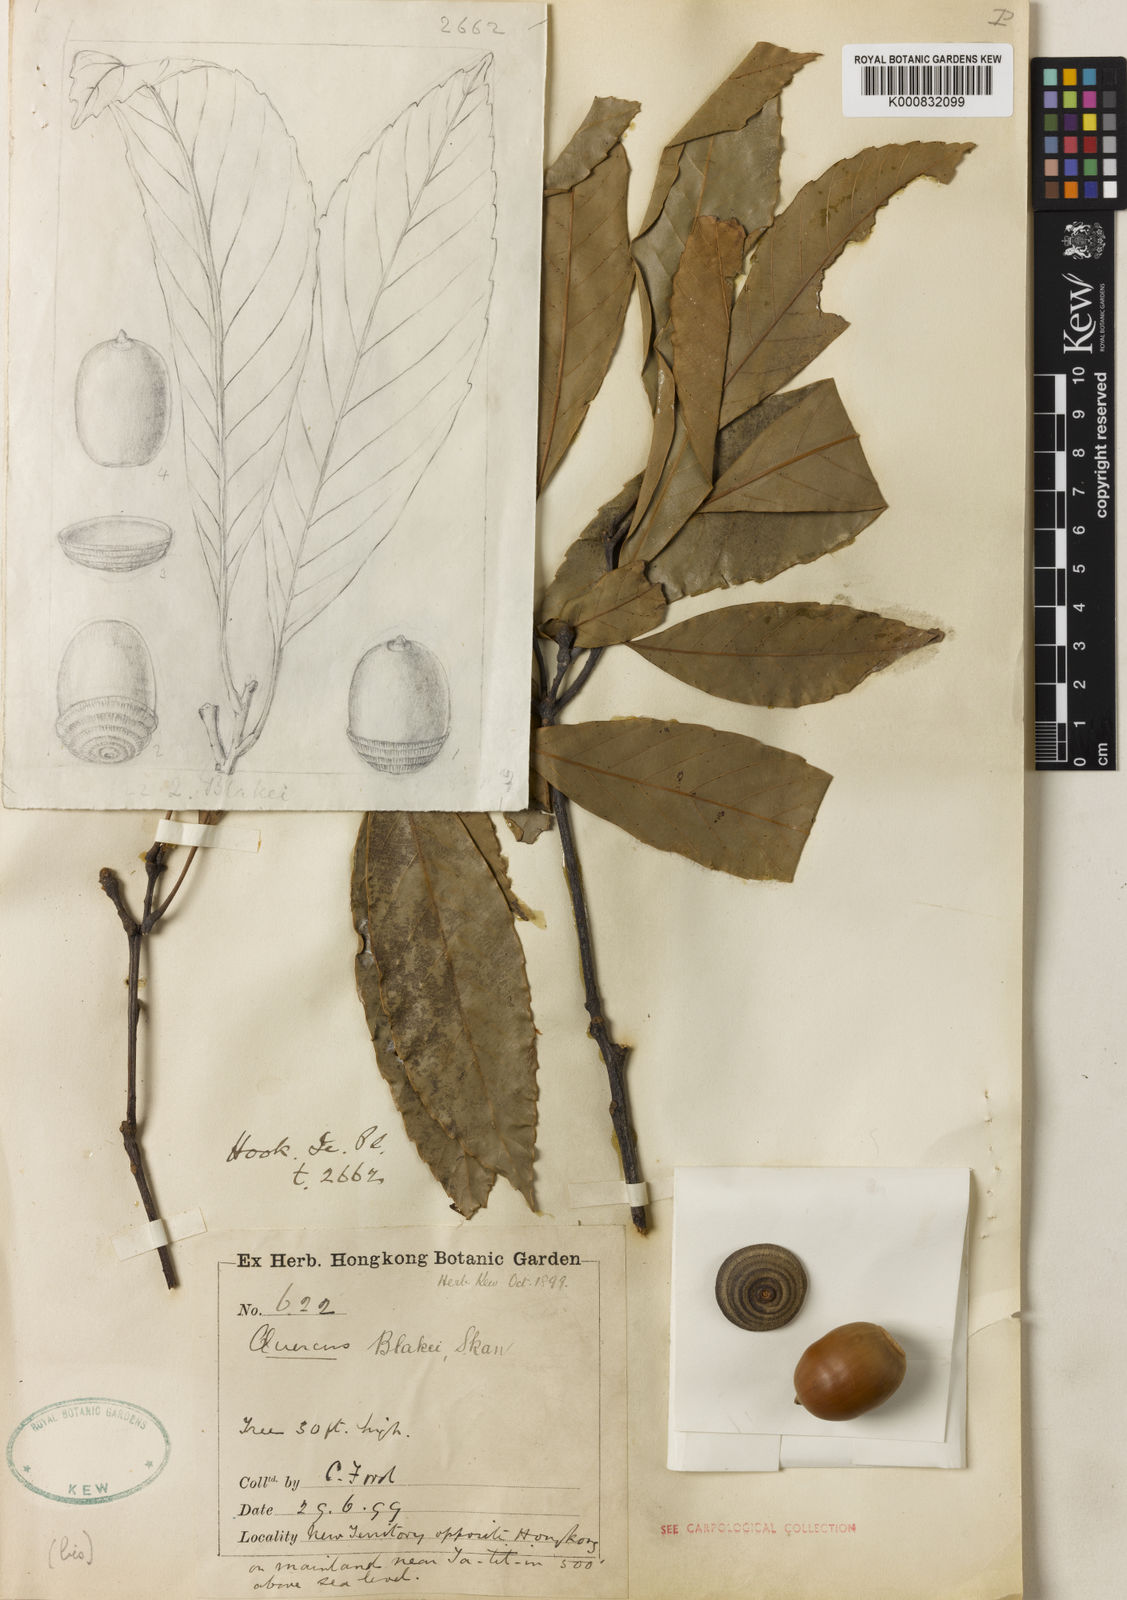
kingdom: Plantae
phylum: Tracheophyta
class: Magnoliopsida
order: Fagales
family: Fagaceae
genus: Quercus
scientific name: Quercus blakei
